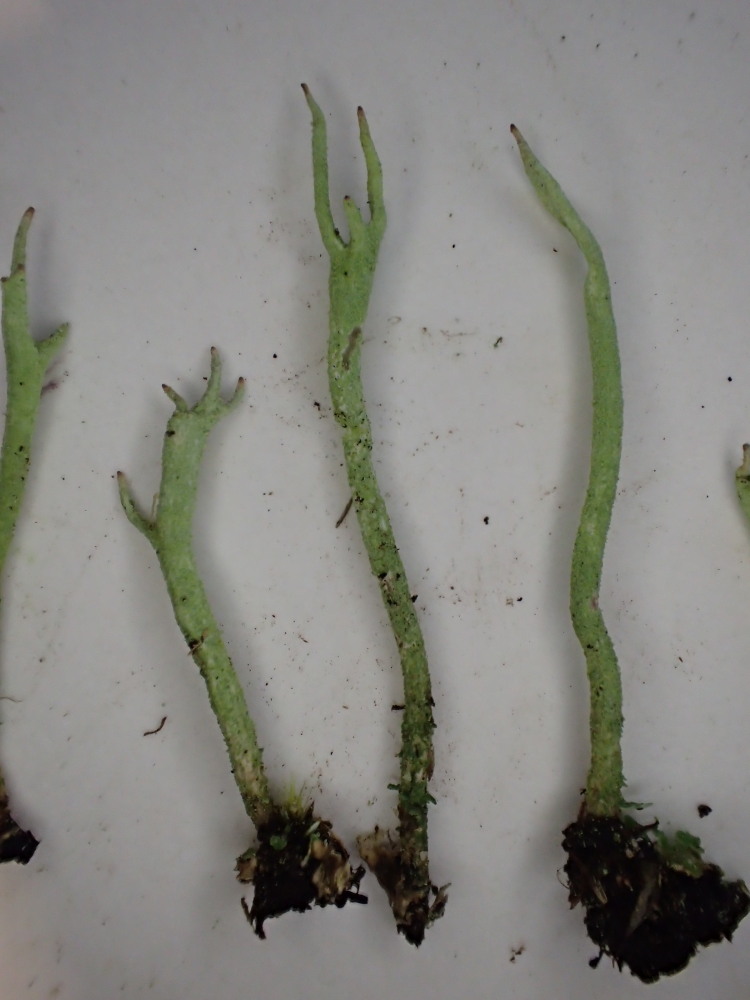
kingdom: Fungi
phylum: Ascomycota
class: Lecanoromycetes
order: Lecanorales
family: Cladoniaceae
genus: Cladonia
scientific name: Cladonia subulata
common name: spids bægerlav
